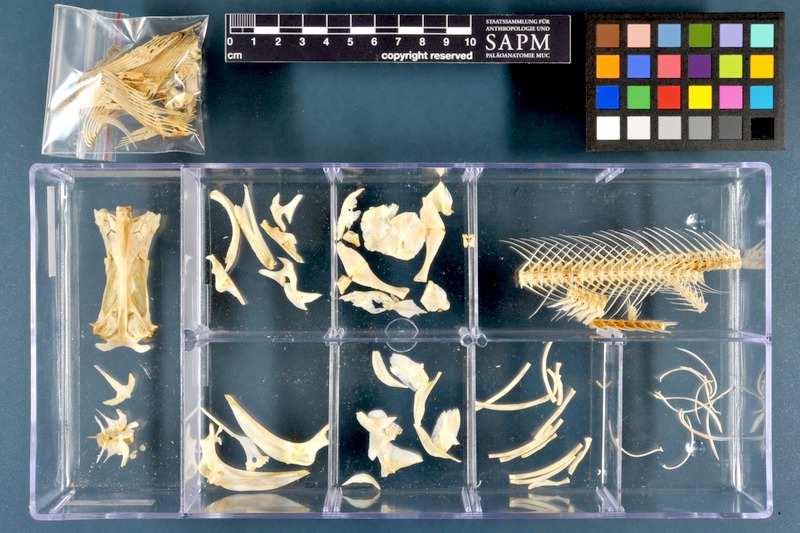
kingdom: Animalia
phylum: Chordata
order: Siluriformes
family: Siluridae
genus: Silurus
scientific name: Silurus triostegus
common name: Mesopotamian catfish
